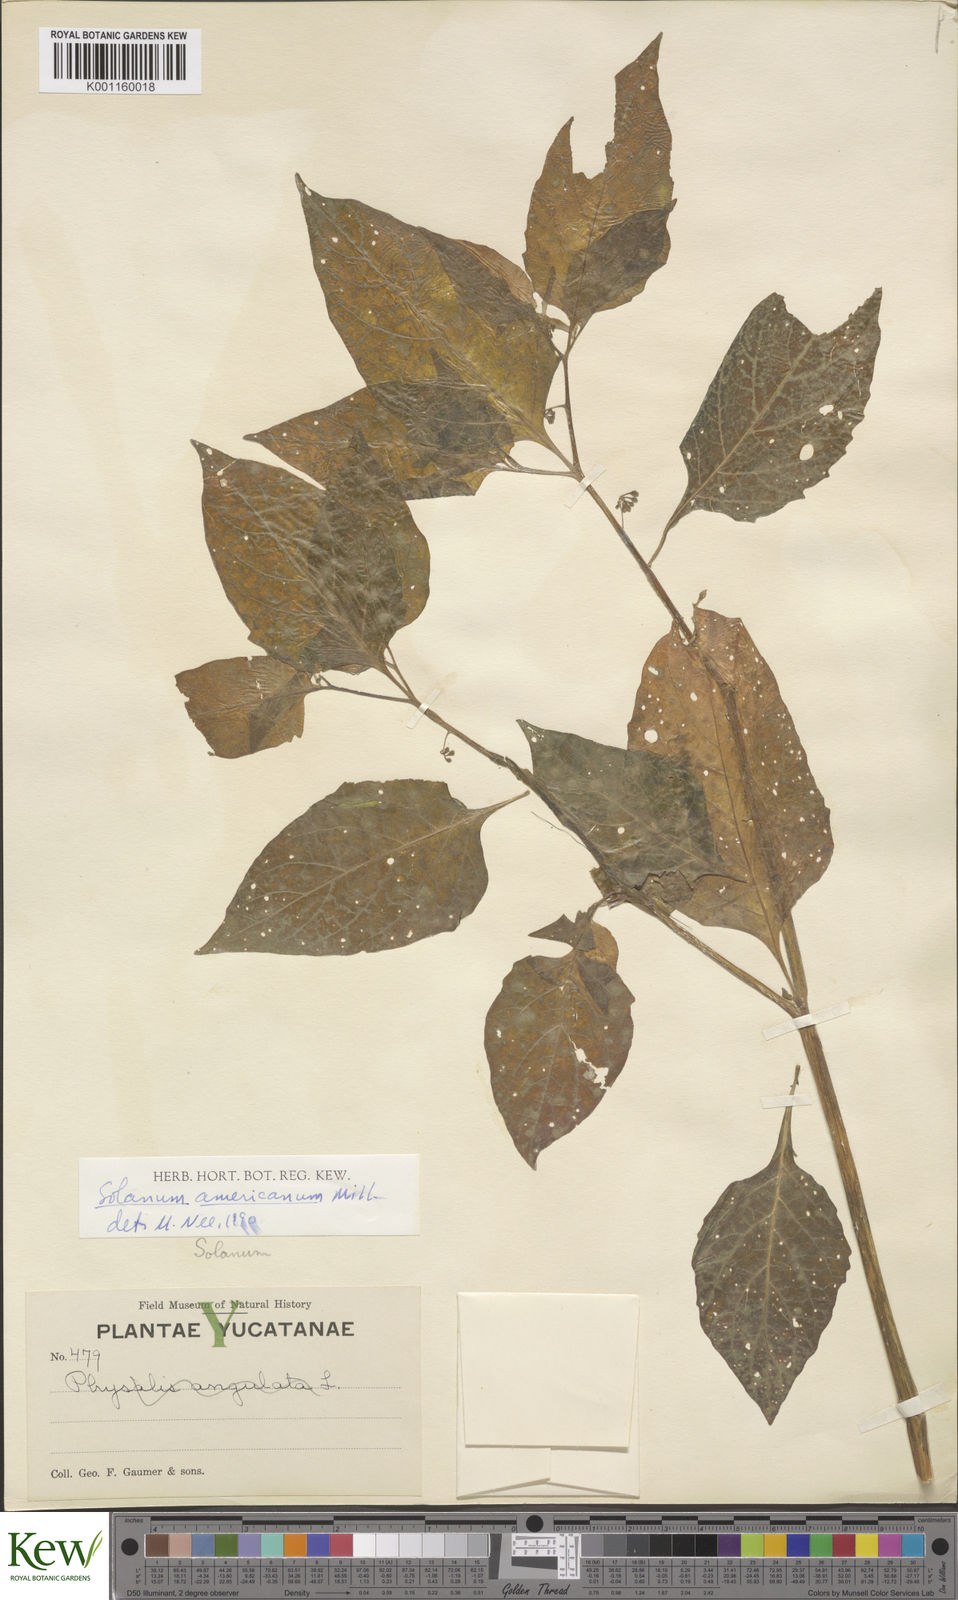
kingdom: Plantae
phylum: Tracheophyta
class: Magnoliopsida
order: Solanales
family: Solanaceae
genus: Solanum
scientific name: Solanum americanum
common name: American black nightshade
